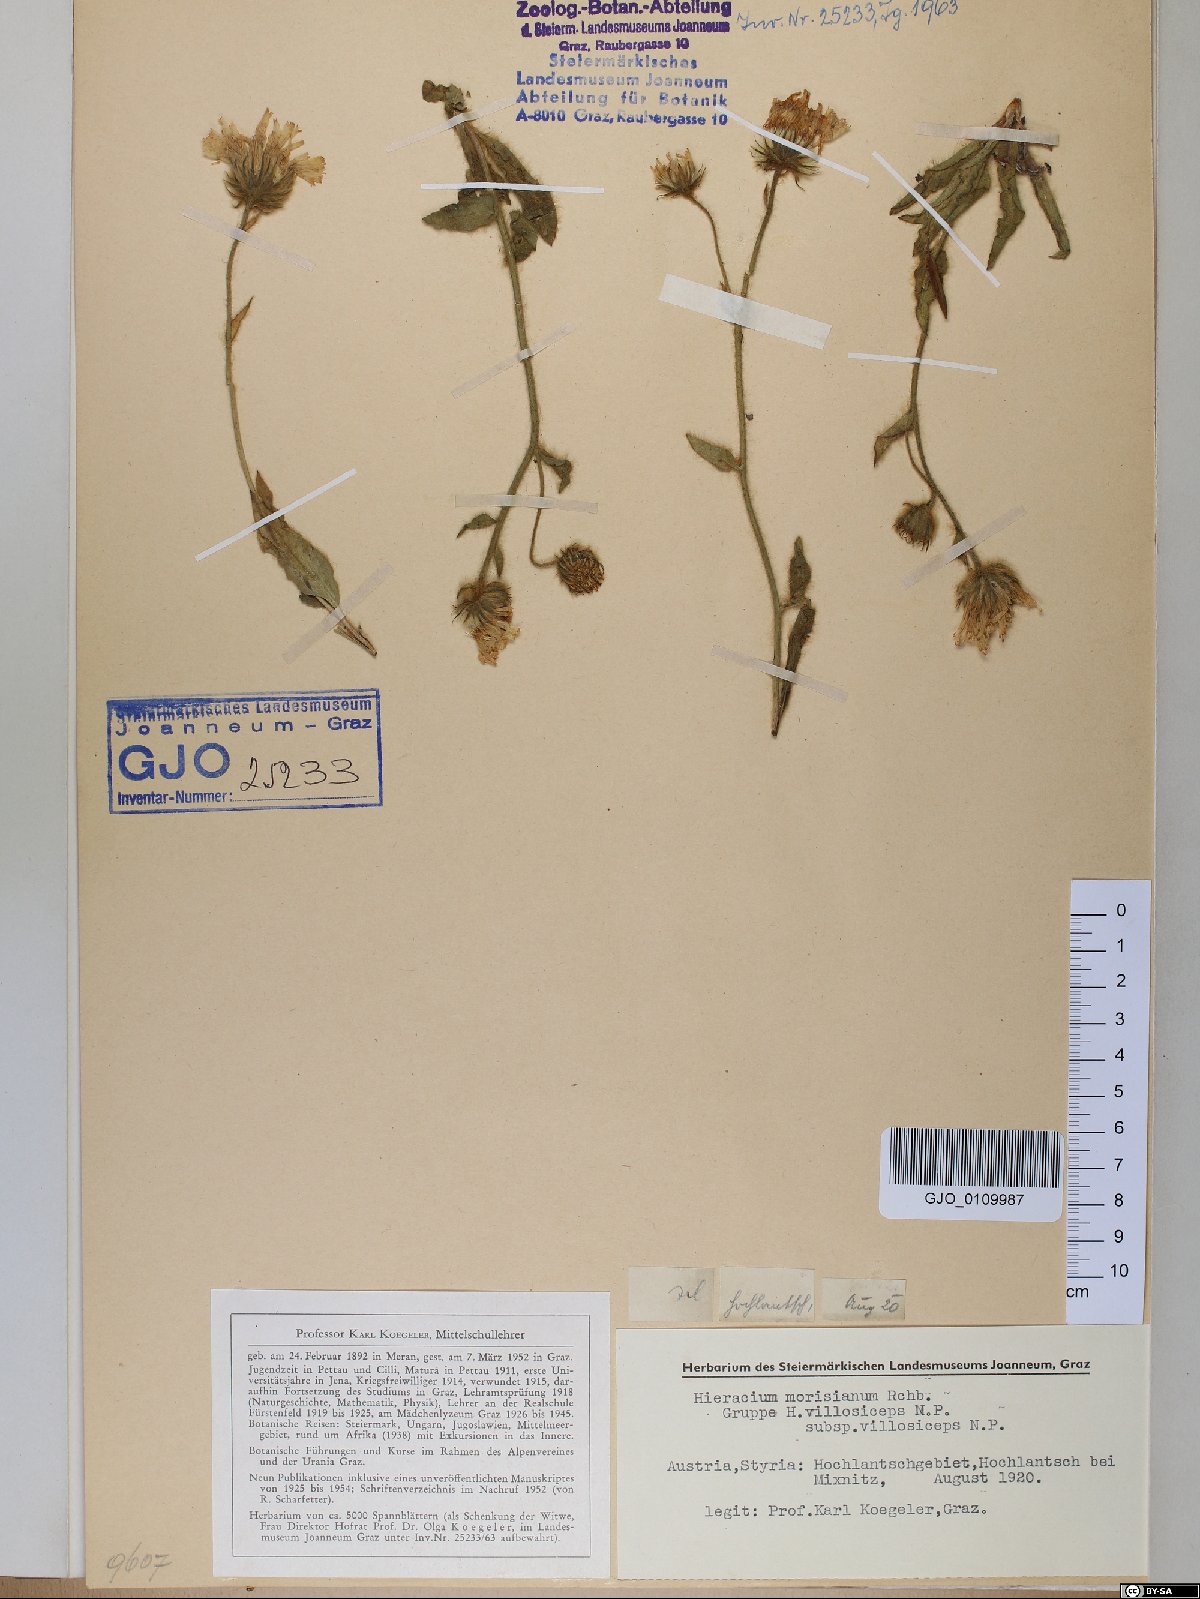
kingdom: Plantae
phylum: Tracheophyta
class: Magnoliopsida
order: Asterales
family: Asteraceae
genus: Hieracium
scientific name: Hieracium pilosum
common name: Fimbriate-pitted hawkweed
